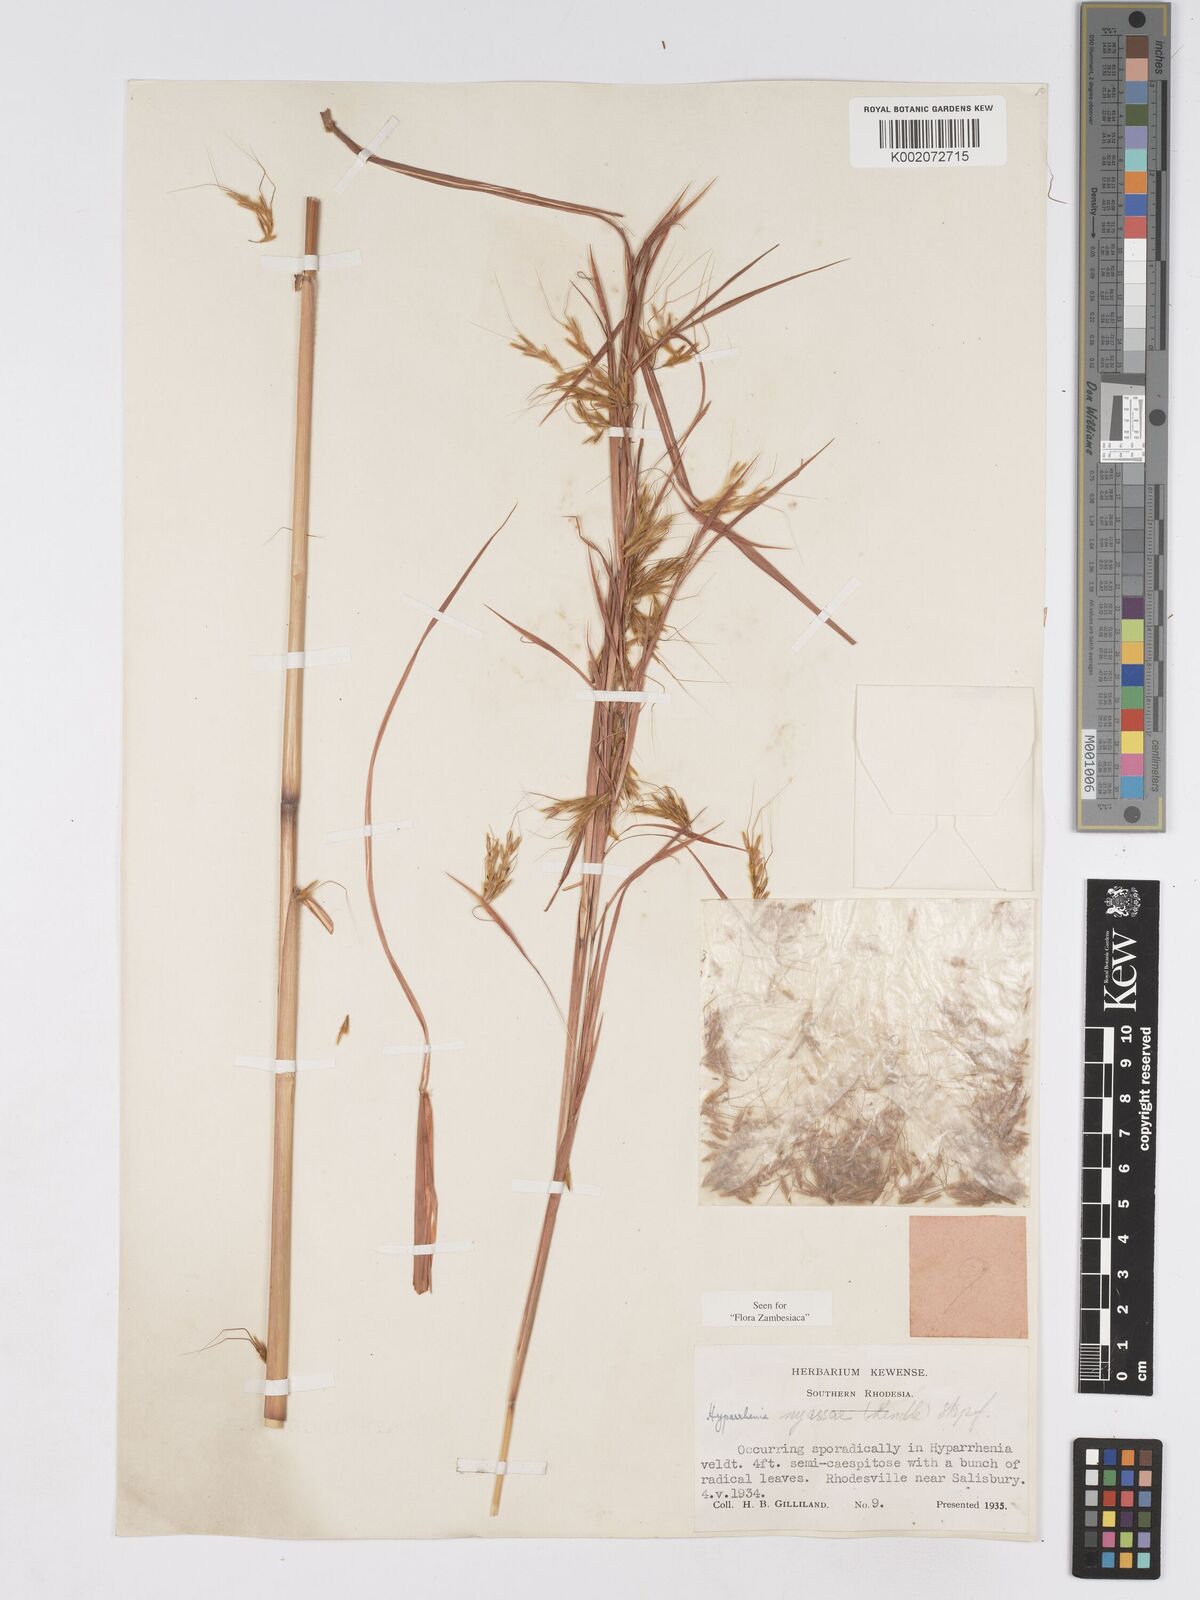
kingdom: Plantae
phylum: Tracheophyta
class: Liliopsida
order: Poales
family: Poaceae
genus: Hyparrhenia
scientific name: Hyparrhenia nyassae
